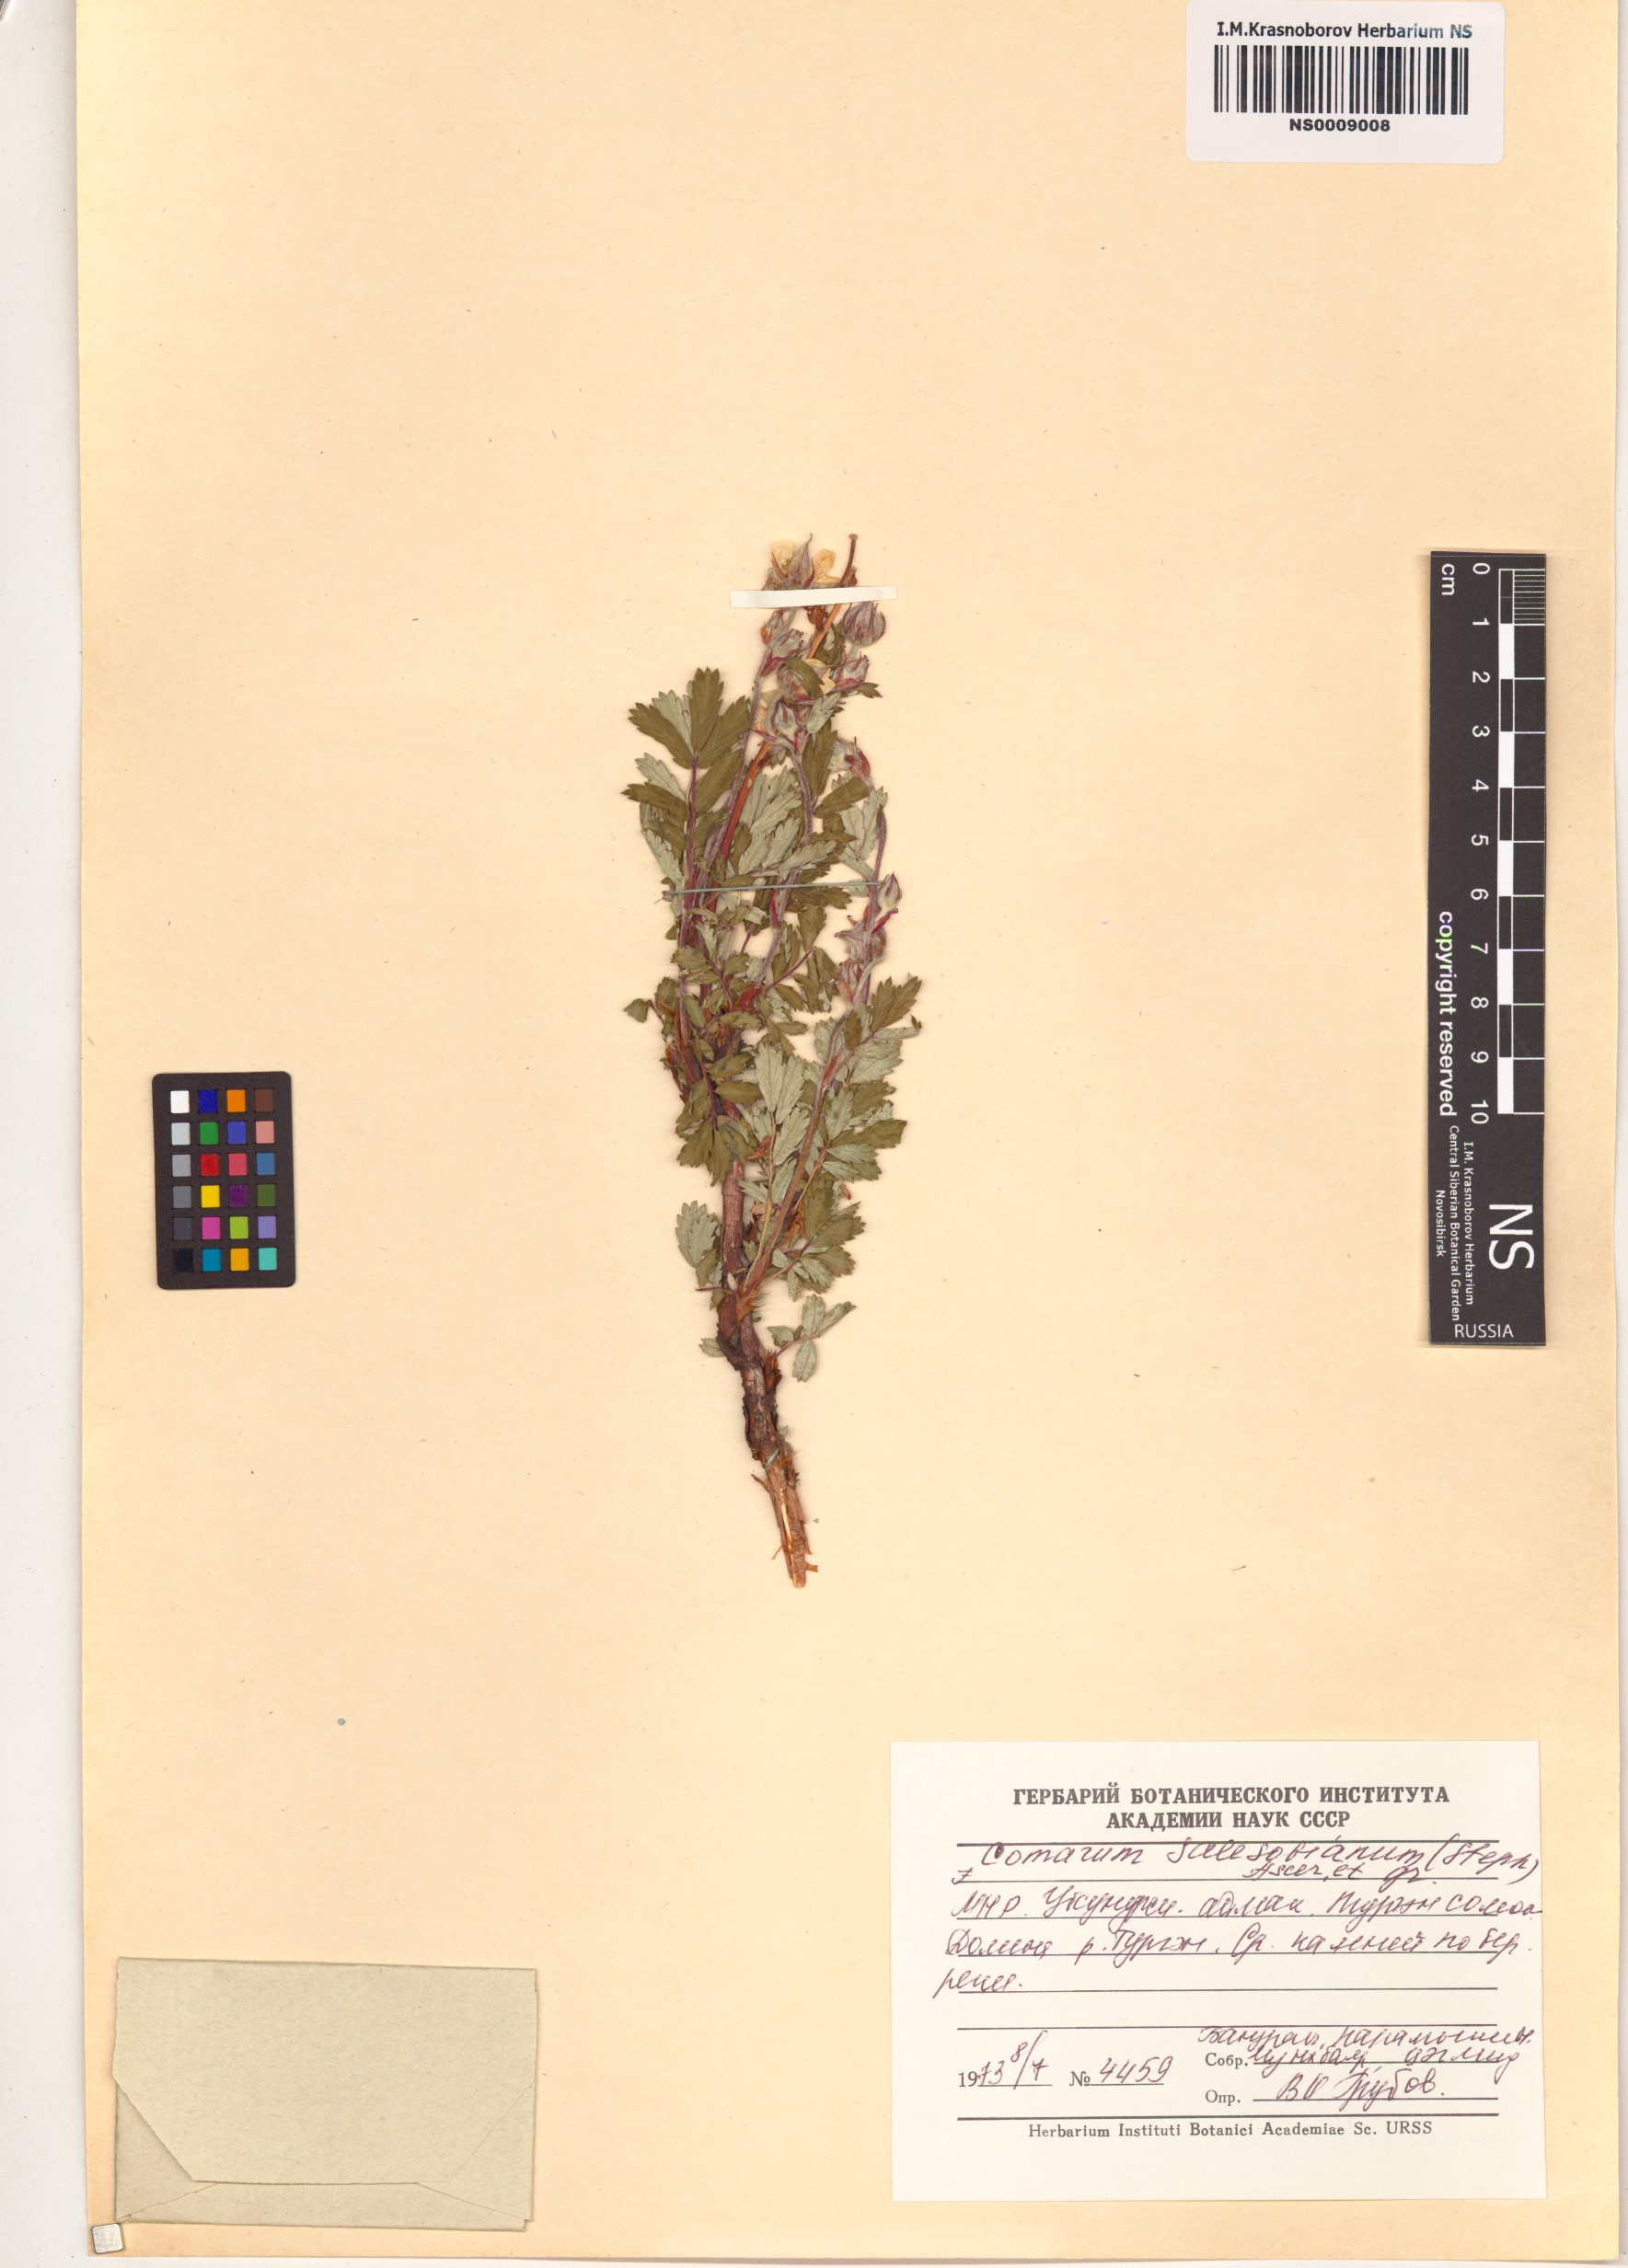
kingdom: Plantae
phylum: Tracheophyta
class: Magnoliopsida
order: Rosales
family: Rosaceae
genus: Farinopsis
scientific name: Farinopsis salesoviana
